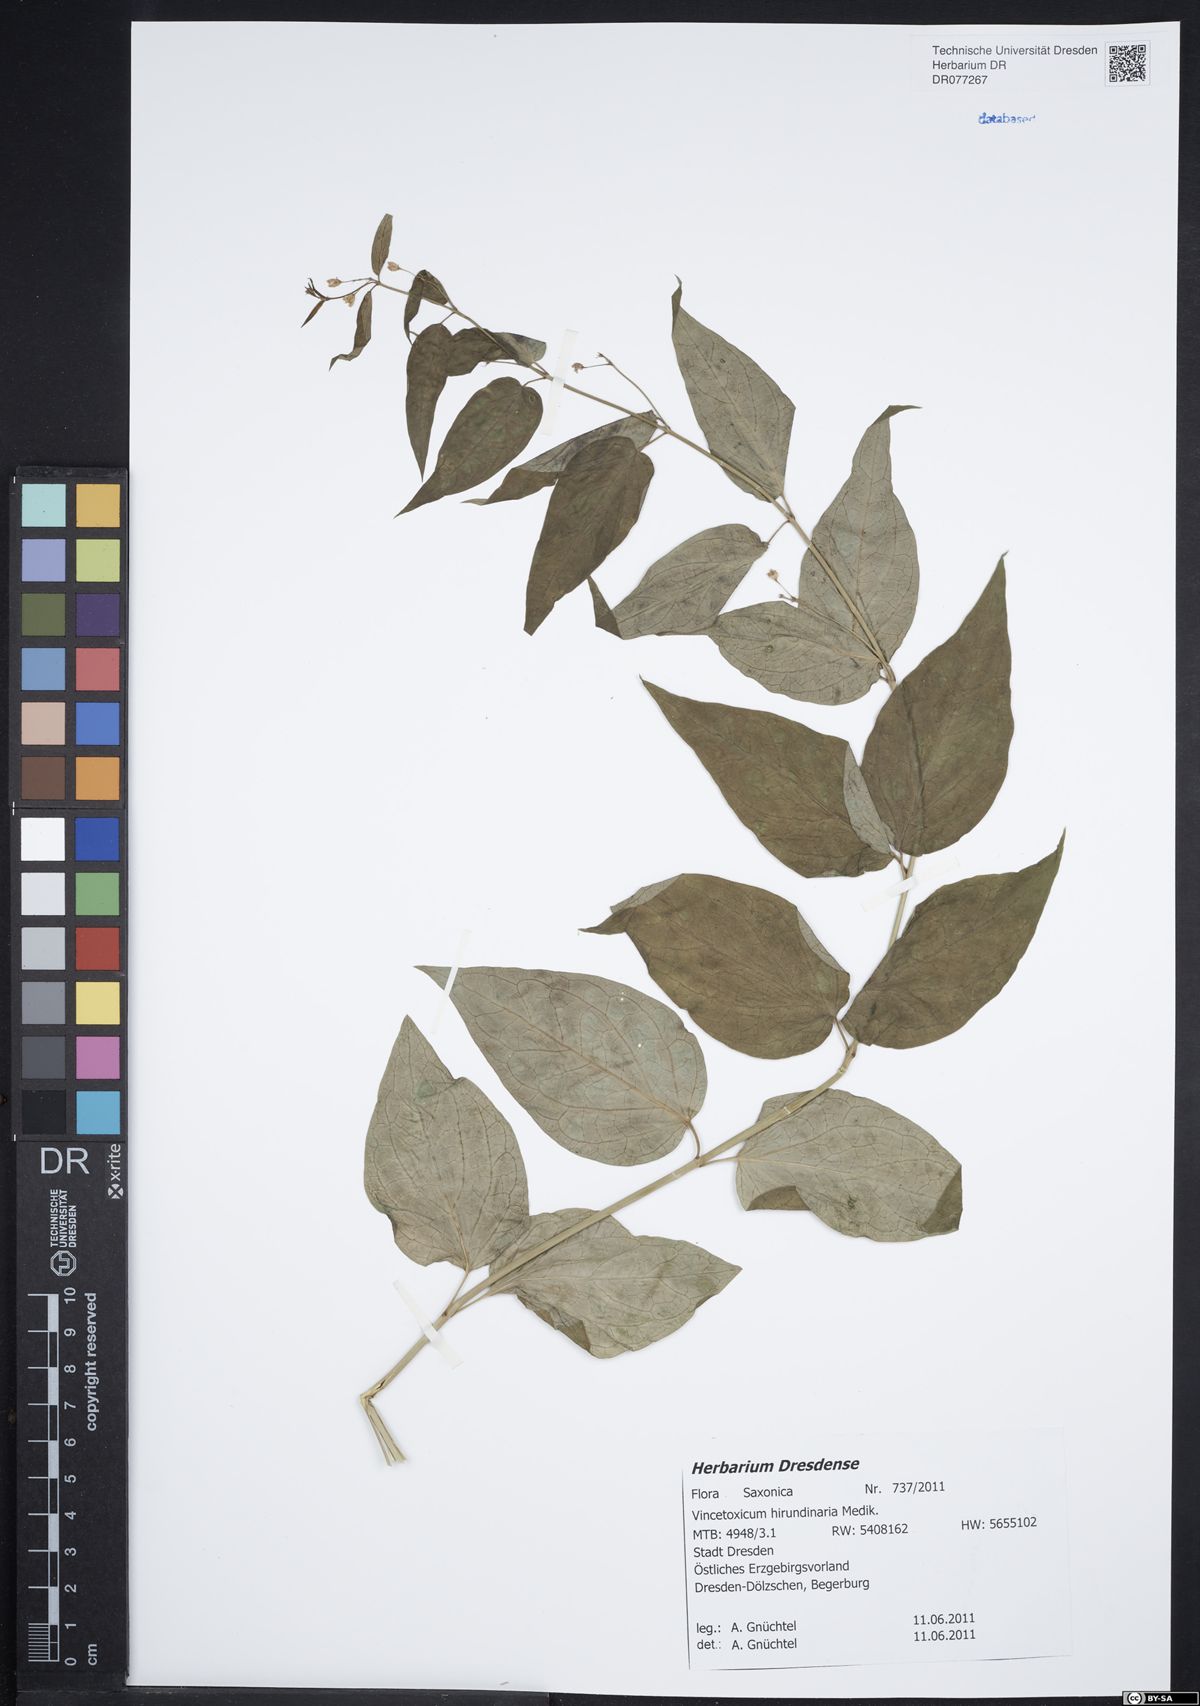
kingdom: Plantae
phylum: Tracheophyta
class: Magnoliopsida
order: Gentianales
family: Apocynaceae
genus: Vincetoxicum
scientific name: Vincetoxicum hirundinaria
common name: White swallowwort
